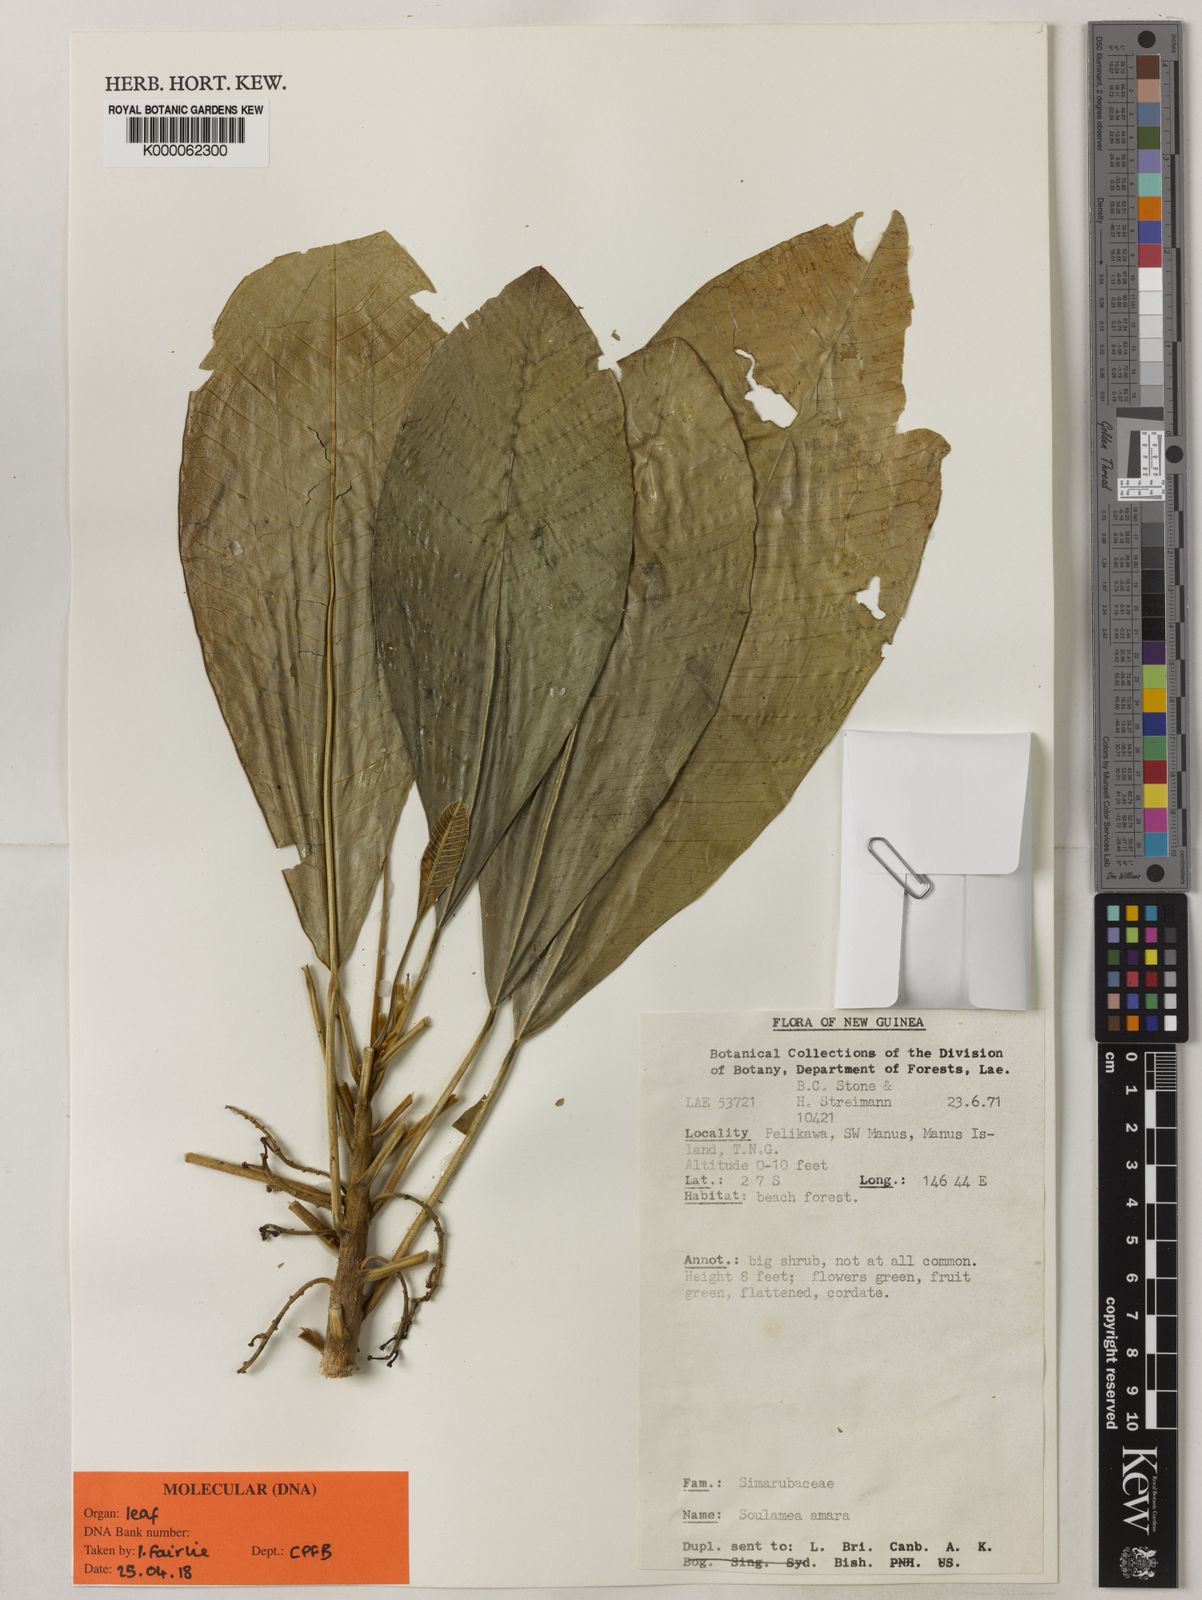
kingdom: Plantae
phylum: Tracheophyta
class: Magnoliopsida
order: Sapindales
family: Simaroubaceae
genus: Soulamea
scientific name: Soulamea amara
